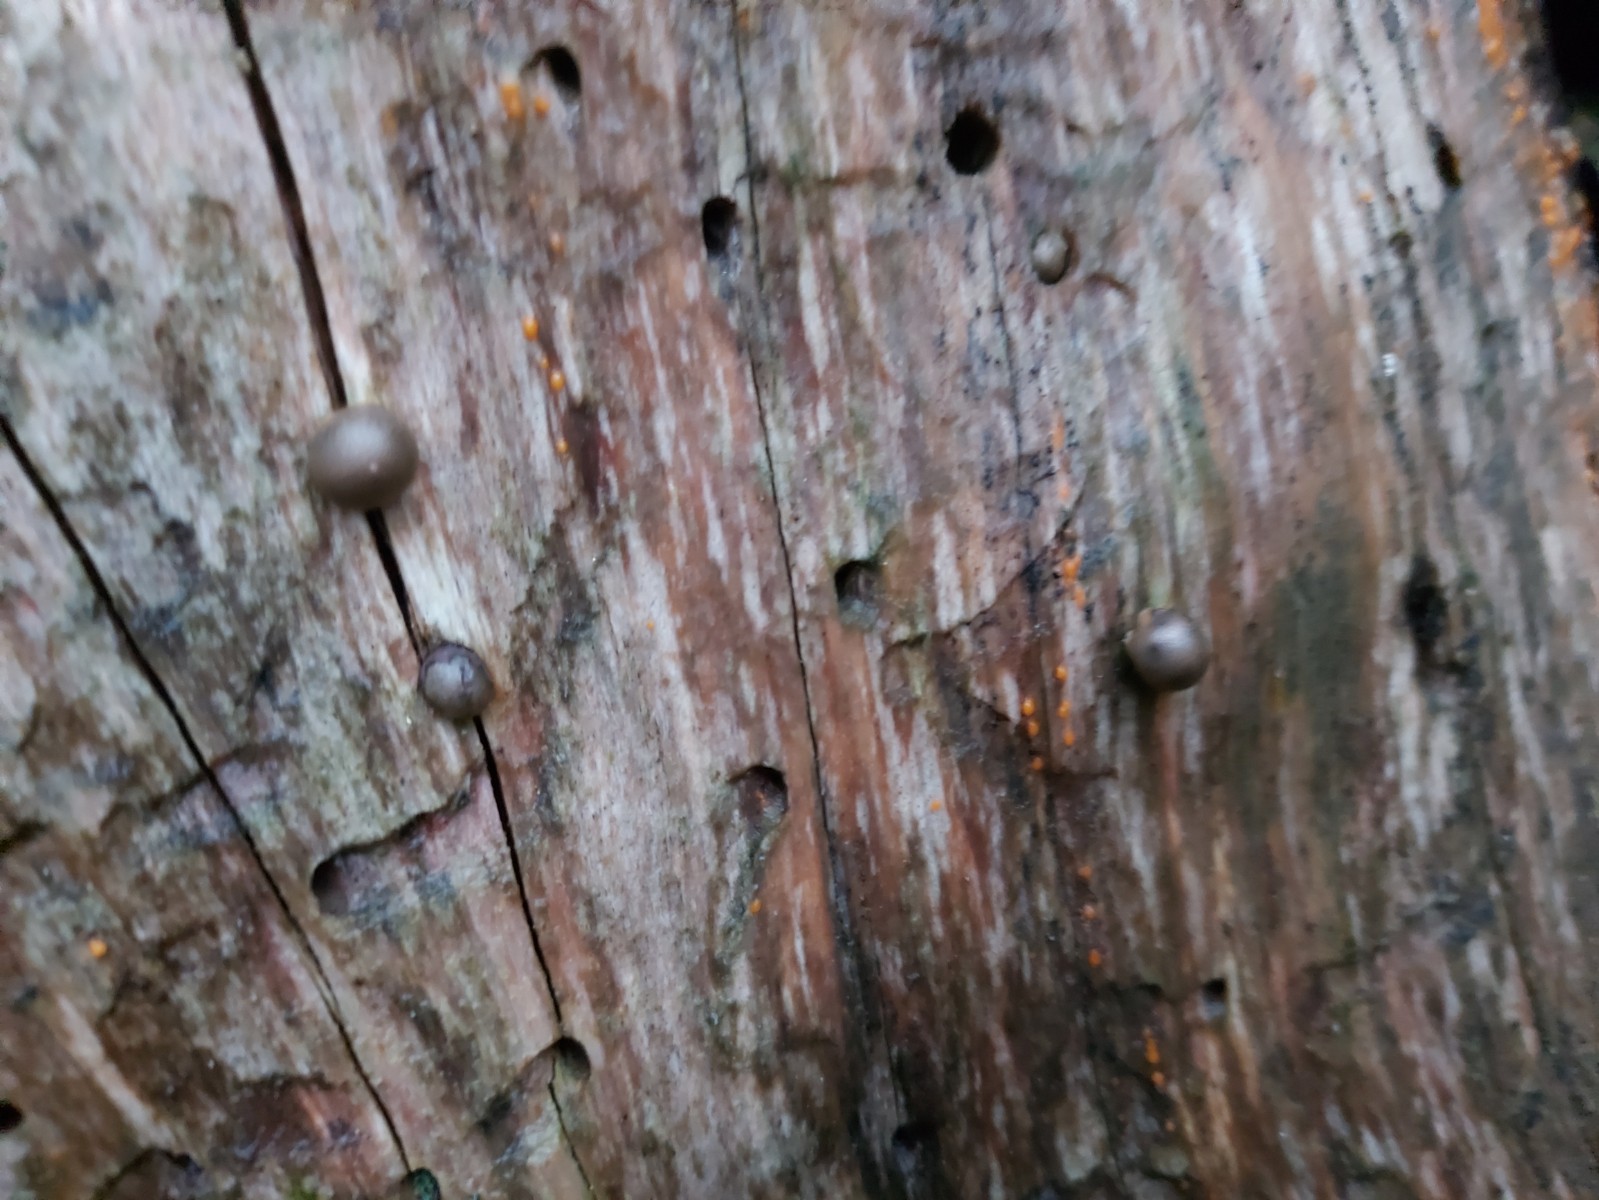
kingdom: Protozoa
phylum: Mycetozoa
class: Myxomycetes
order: Cribrariales
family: Tubiferaceae
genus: Lycogala
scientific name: Lycogala epidendrum
